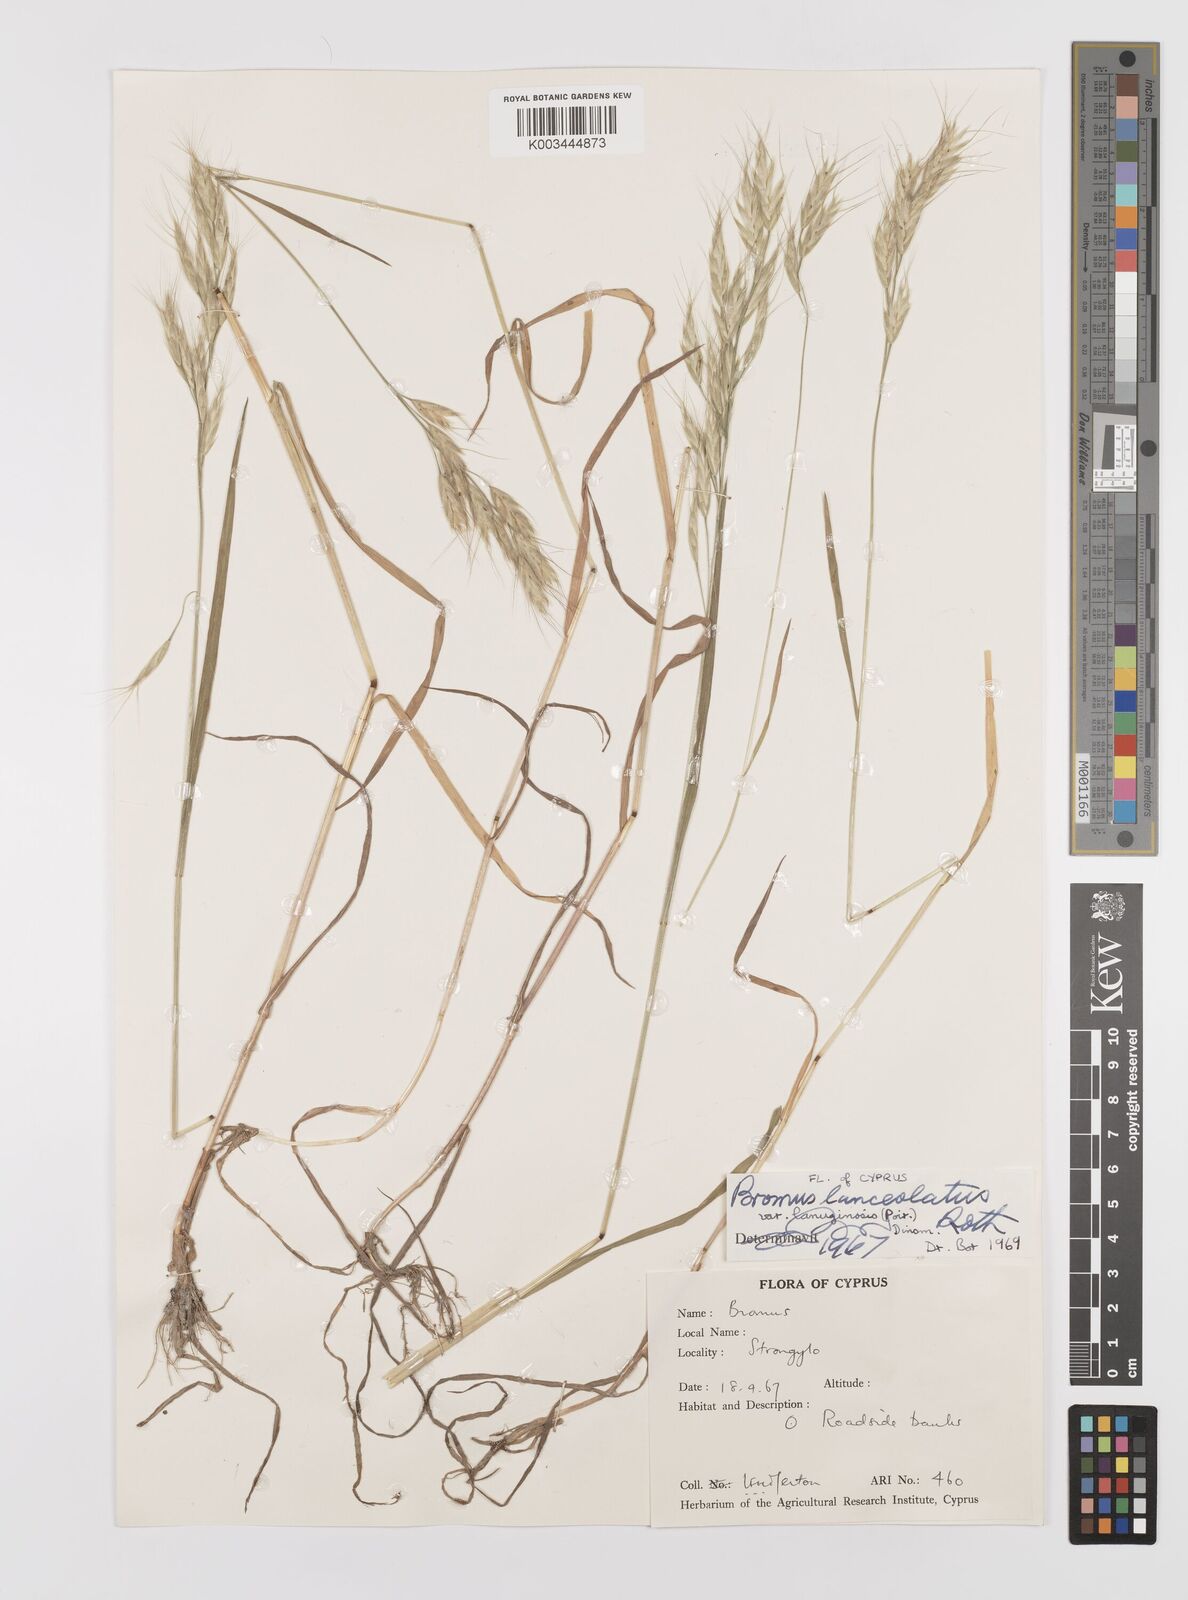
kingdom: Plantae
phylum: Tracheophyta
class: Liliopsida
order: Poales
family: Poaceae
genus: Bromus
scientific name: Bromus lanceolatus
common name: Mediterranean brome
